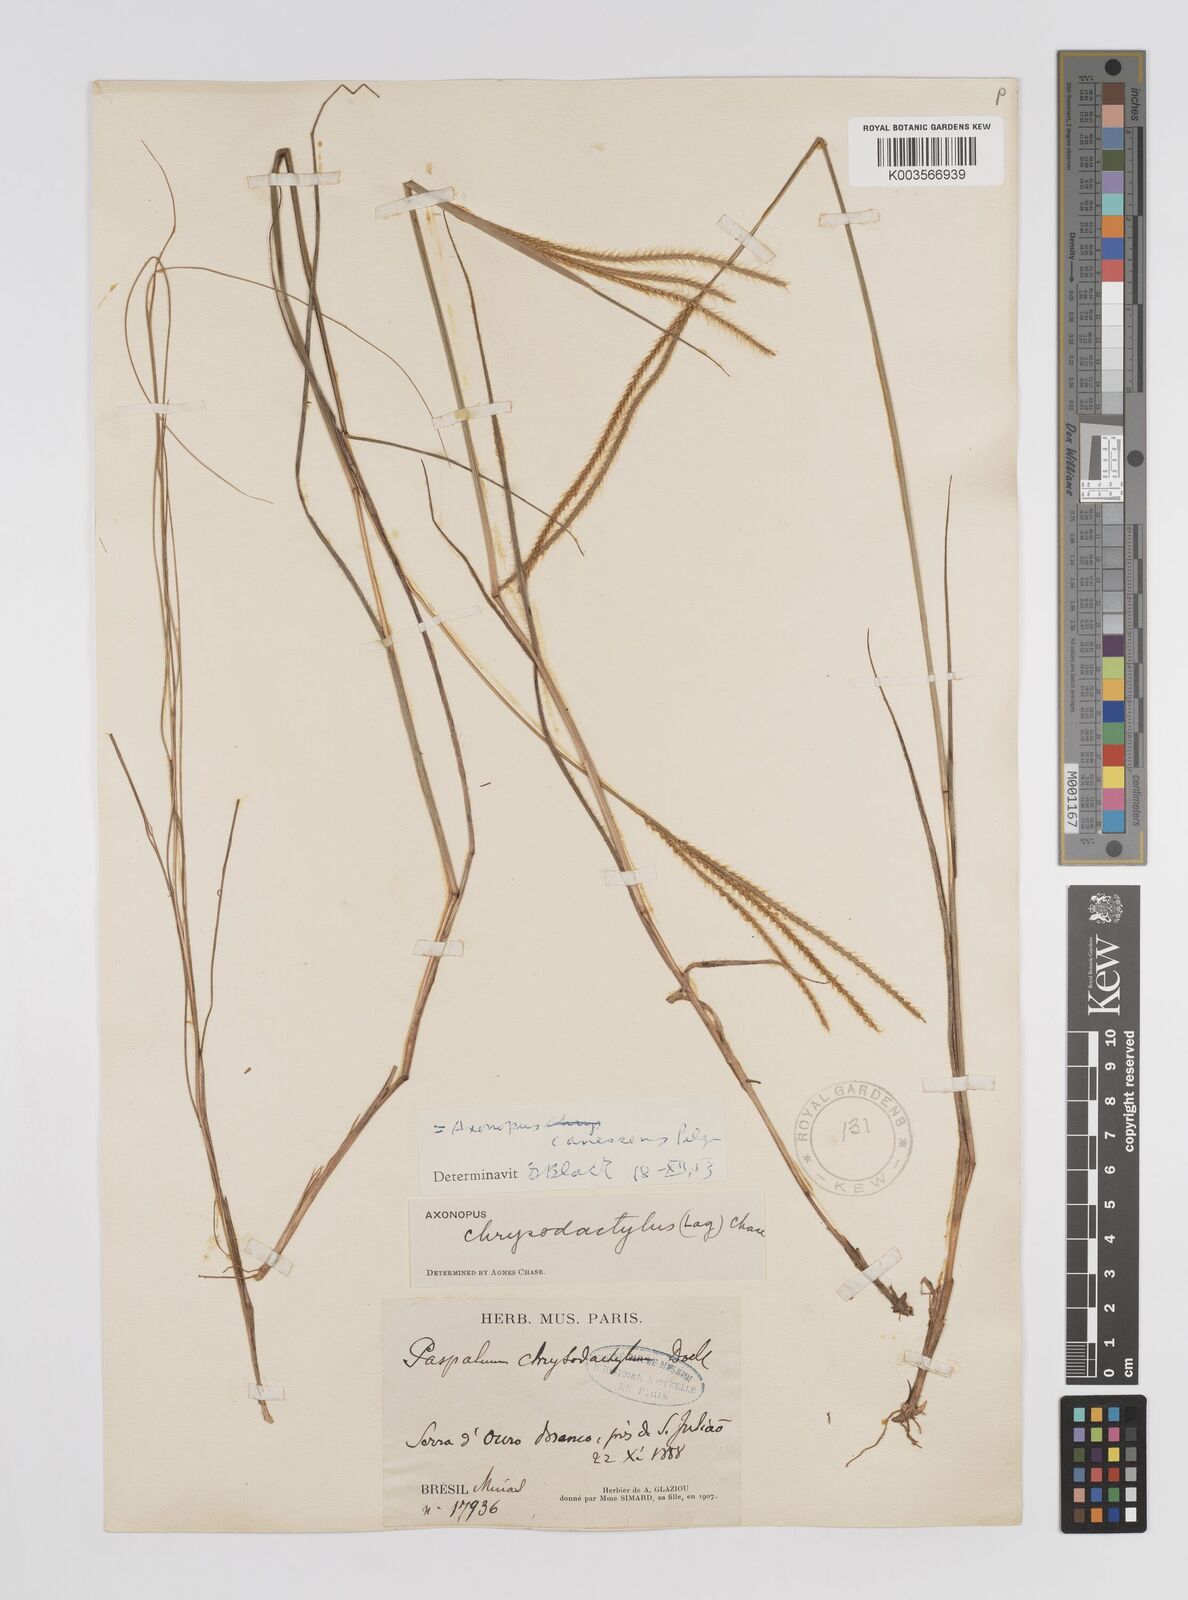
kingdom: Plantae
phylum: Tracheophyta
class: Liliopsida
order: Poales
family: Poaceae
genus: Axonopus
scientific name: Axonopus aureus
